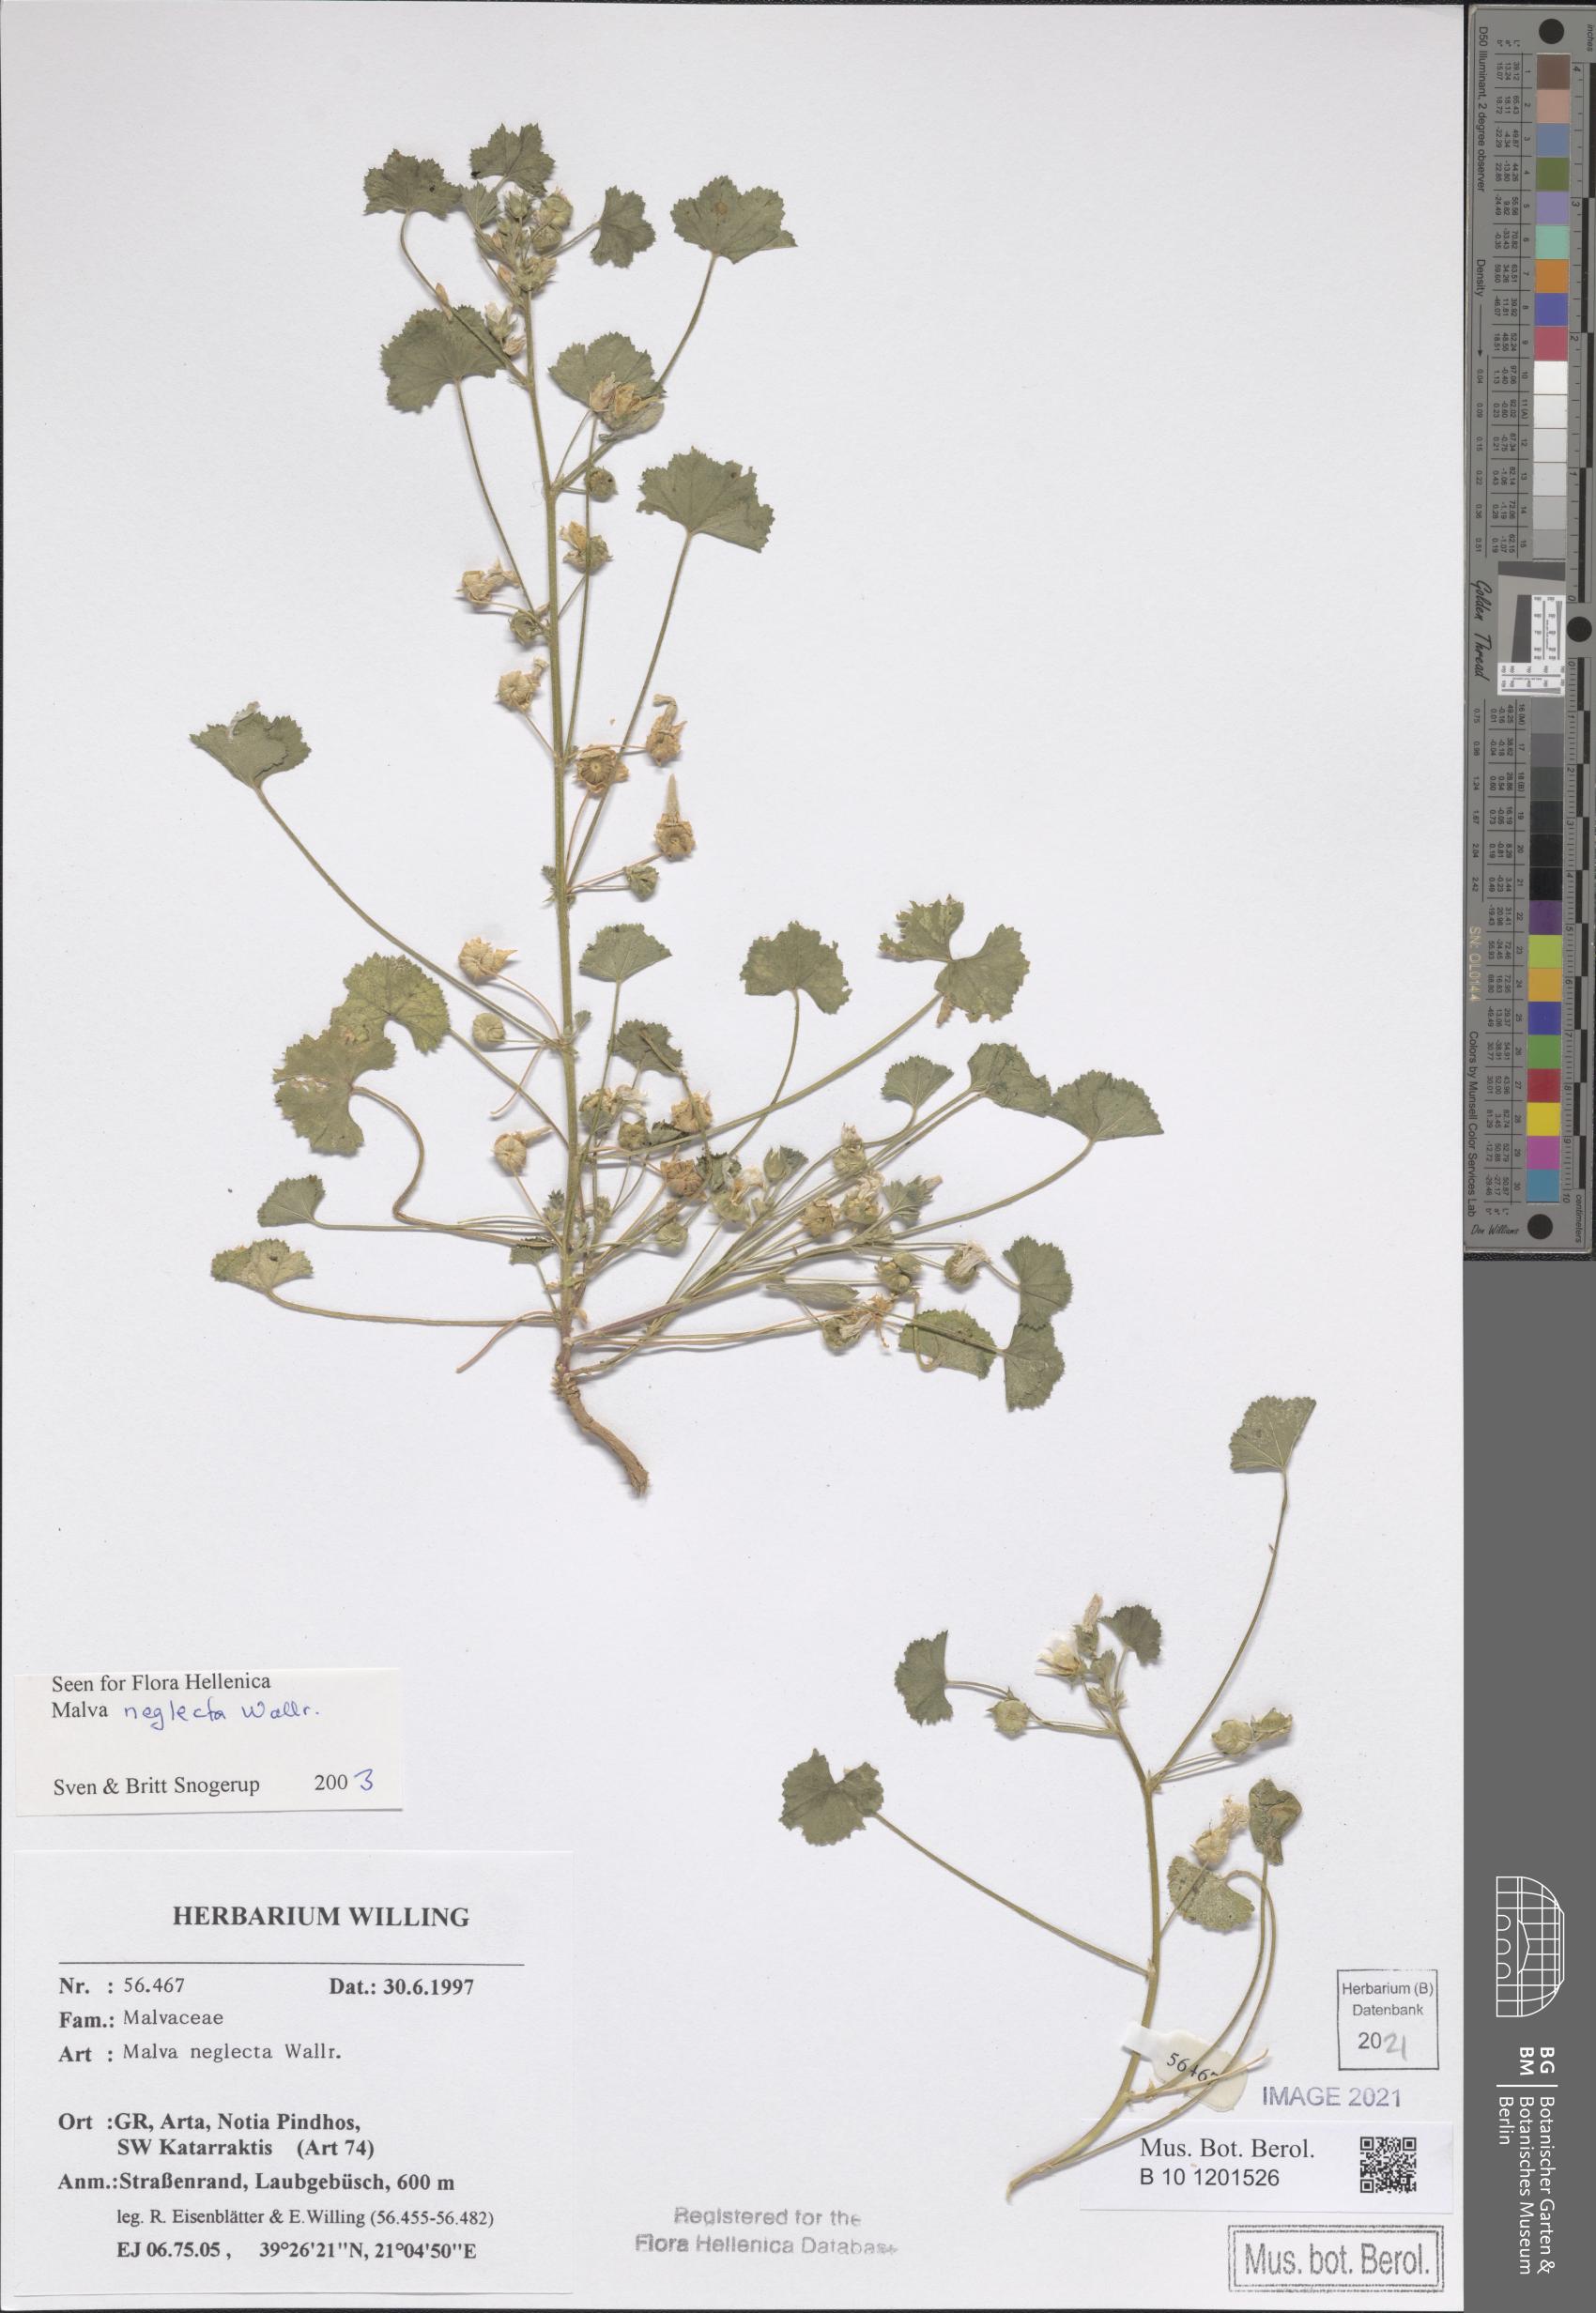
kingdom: Plantae
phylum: Tracheophyta
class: Magnoliopsida
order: Malvales
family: Malvaceae
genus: Malva
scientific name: Malva neglecta
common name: Common mallow
